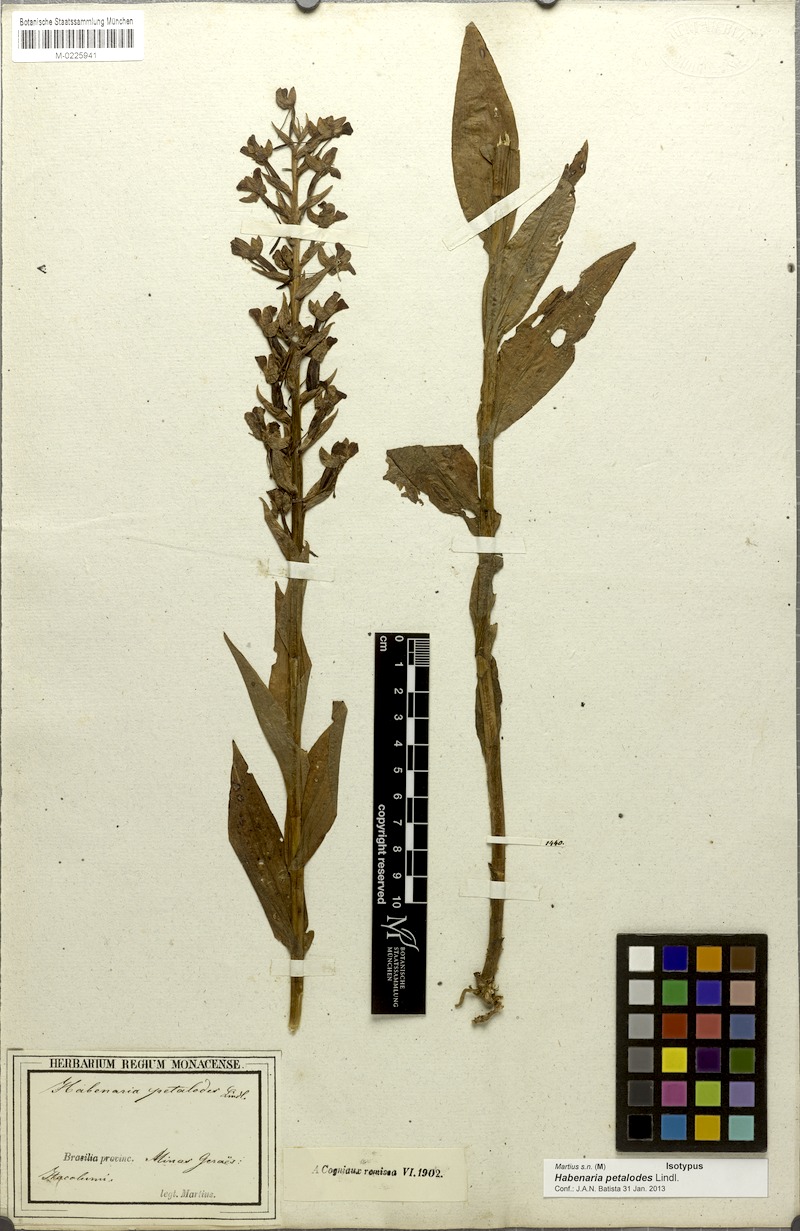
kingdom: Plantae
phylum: Tracheophyta
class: Liliopsida
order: Asparagales
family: Orchidaceae
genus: Habenaria
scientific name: Habenaria petalodes
